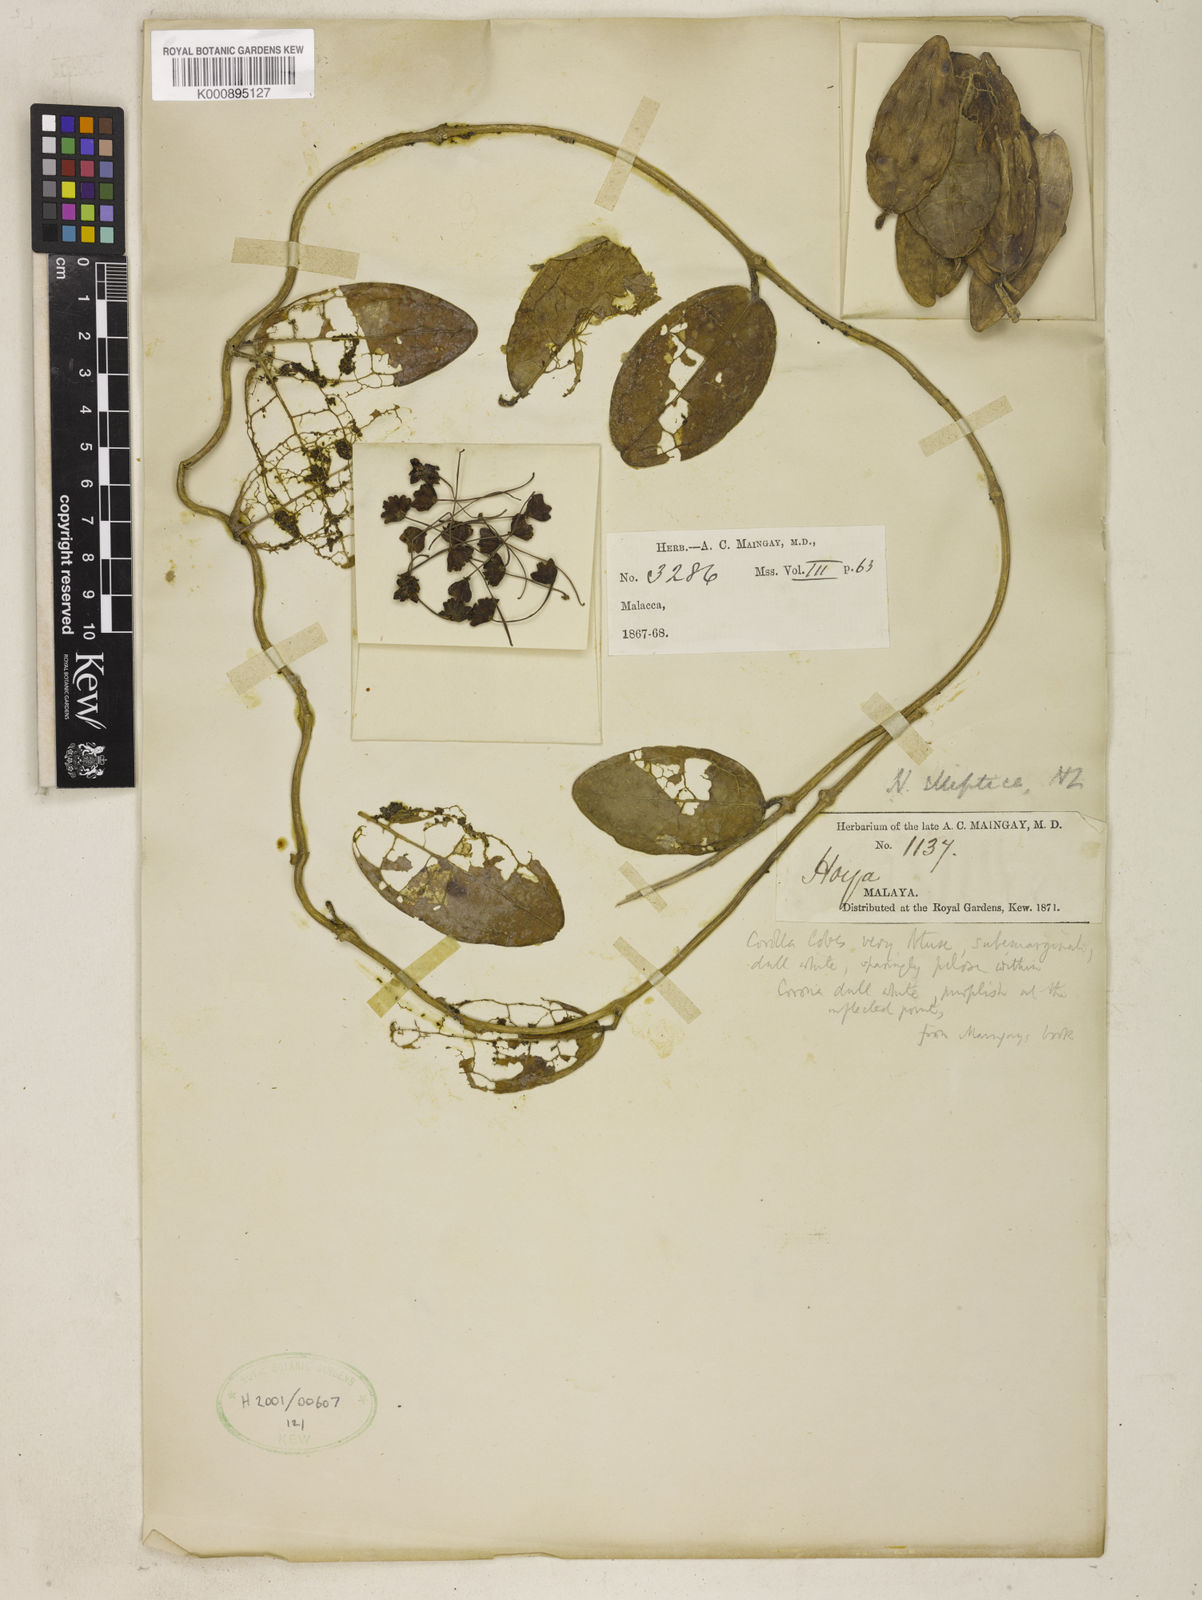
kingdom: Plantae
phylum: Tracheophyta
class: Magnoliopsida
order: Gentianales
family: Apocynaceae
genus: Hoya
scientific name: Hoya elliptica
